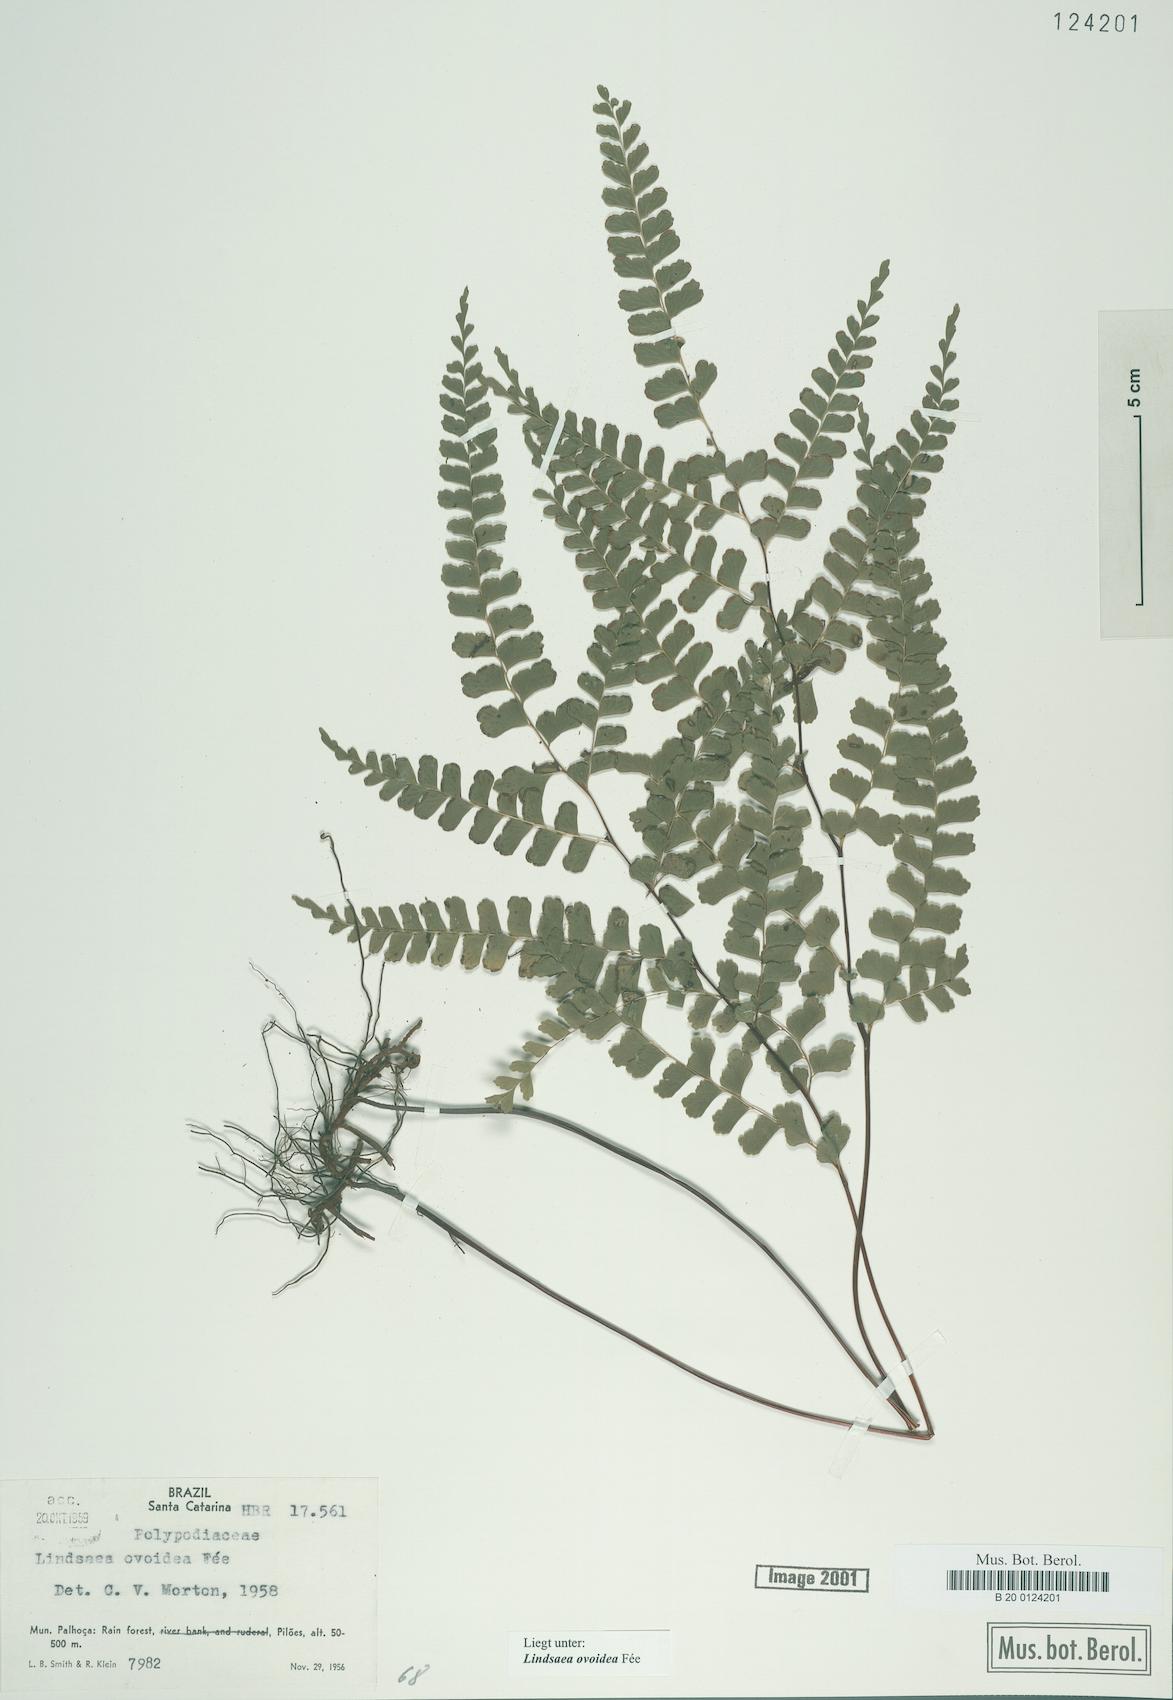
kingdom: Plantae
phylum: Tracheophyta
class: Polypodiopsida
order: Polypodiales
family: Lindsaeaceae
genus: Lindsaea
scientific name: Lindsaea ovoidea
